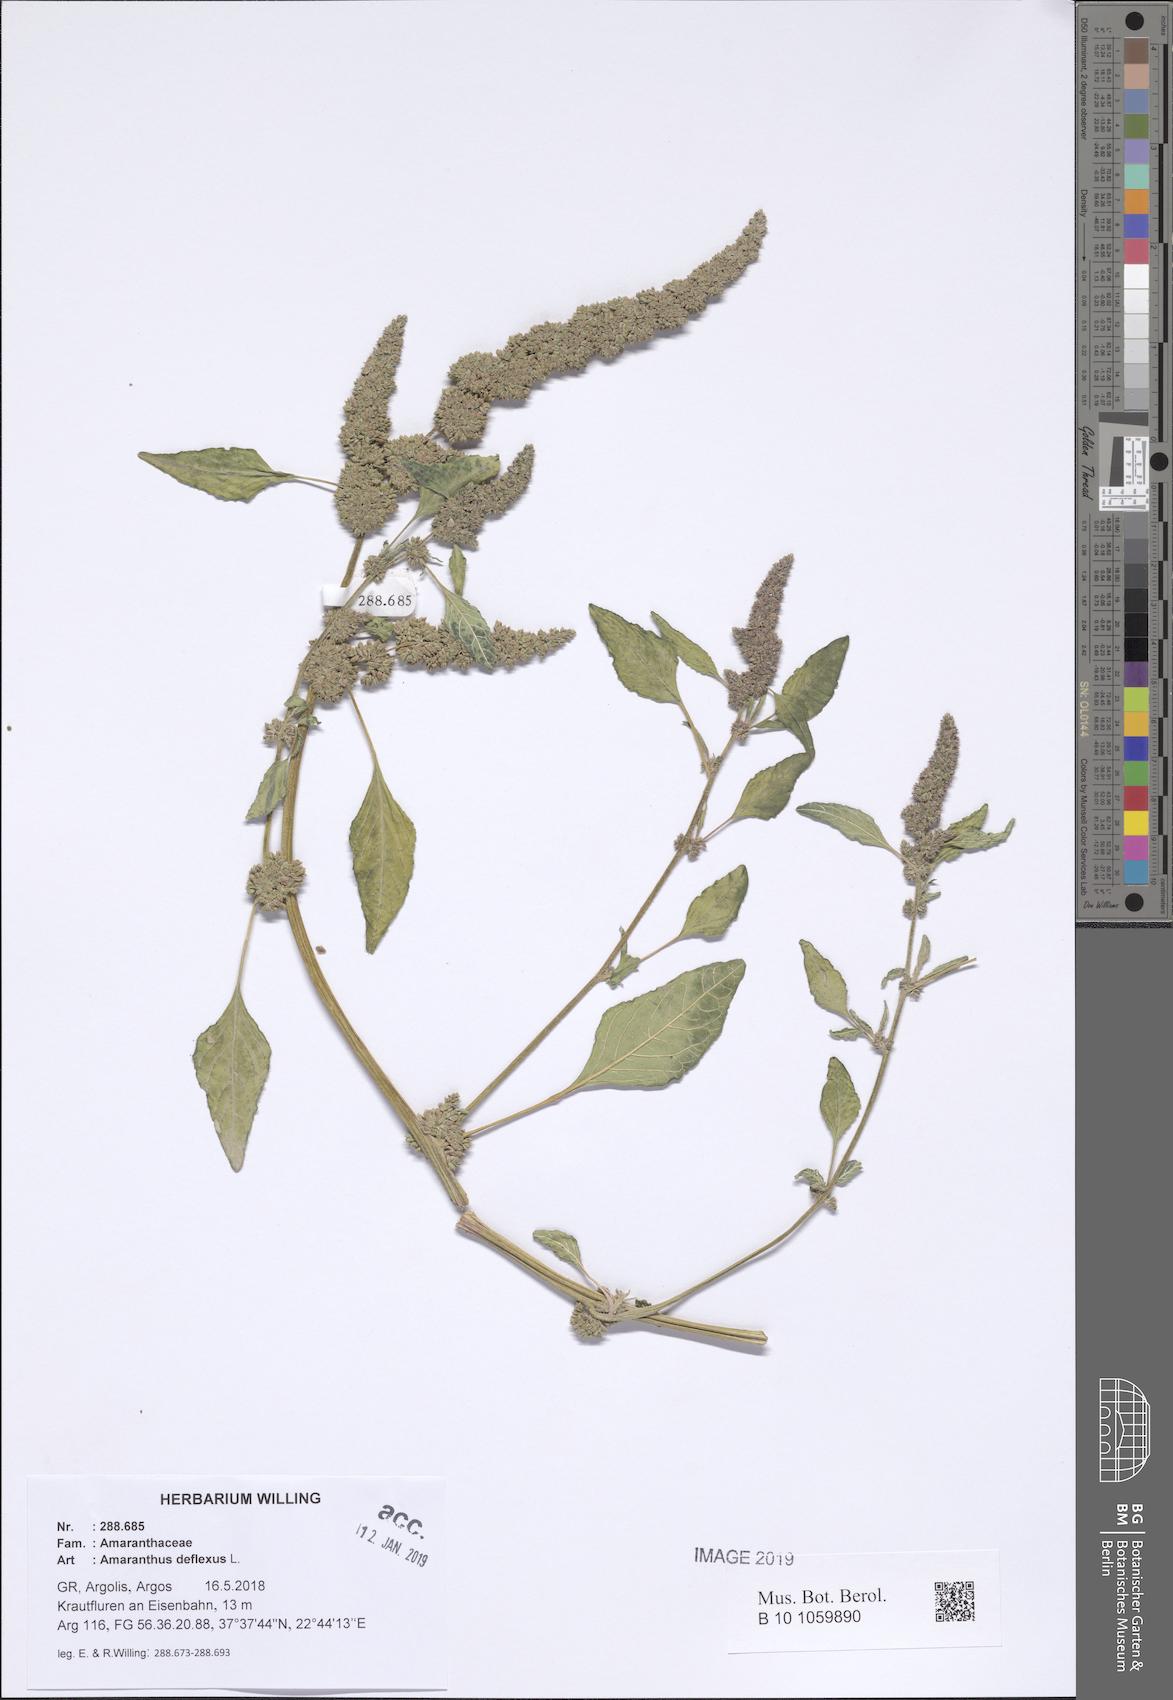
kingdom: Plantae
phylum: Tracheophyta
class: Magnoliopsida
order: Caryophyllales
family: Amaranthaceae
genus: Amaranthus
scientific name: Amaranthus deflexus
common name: Perennial pigweed
